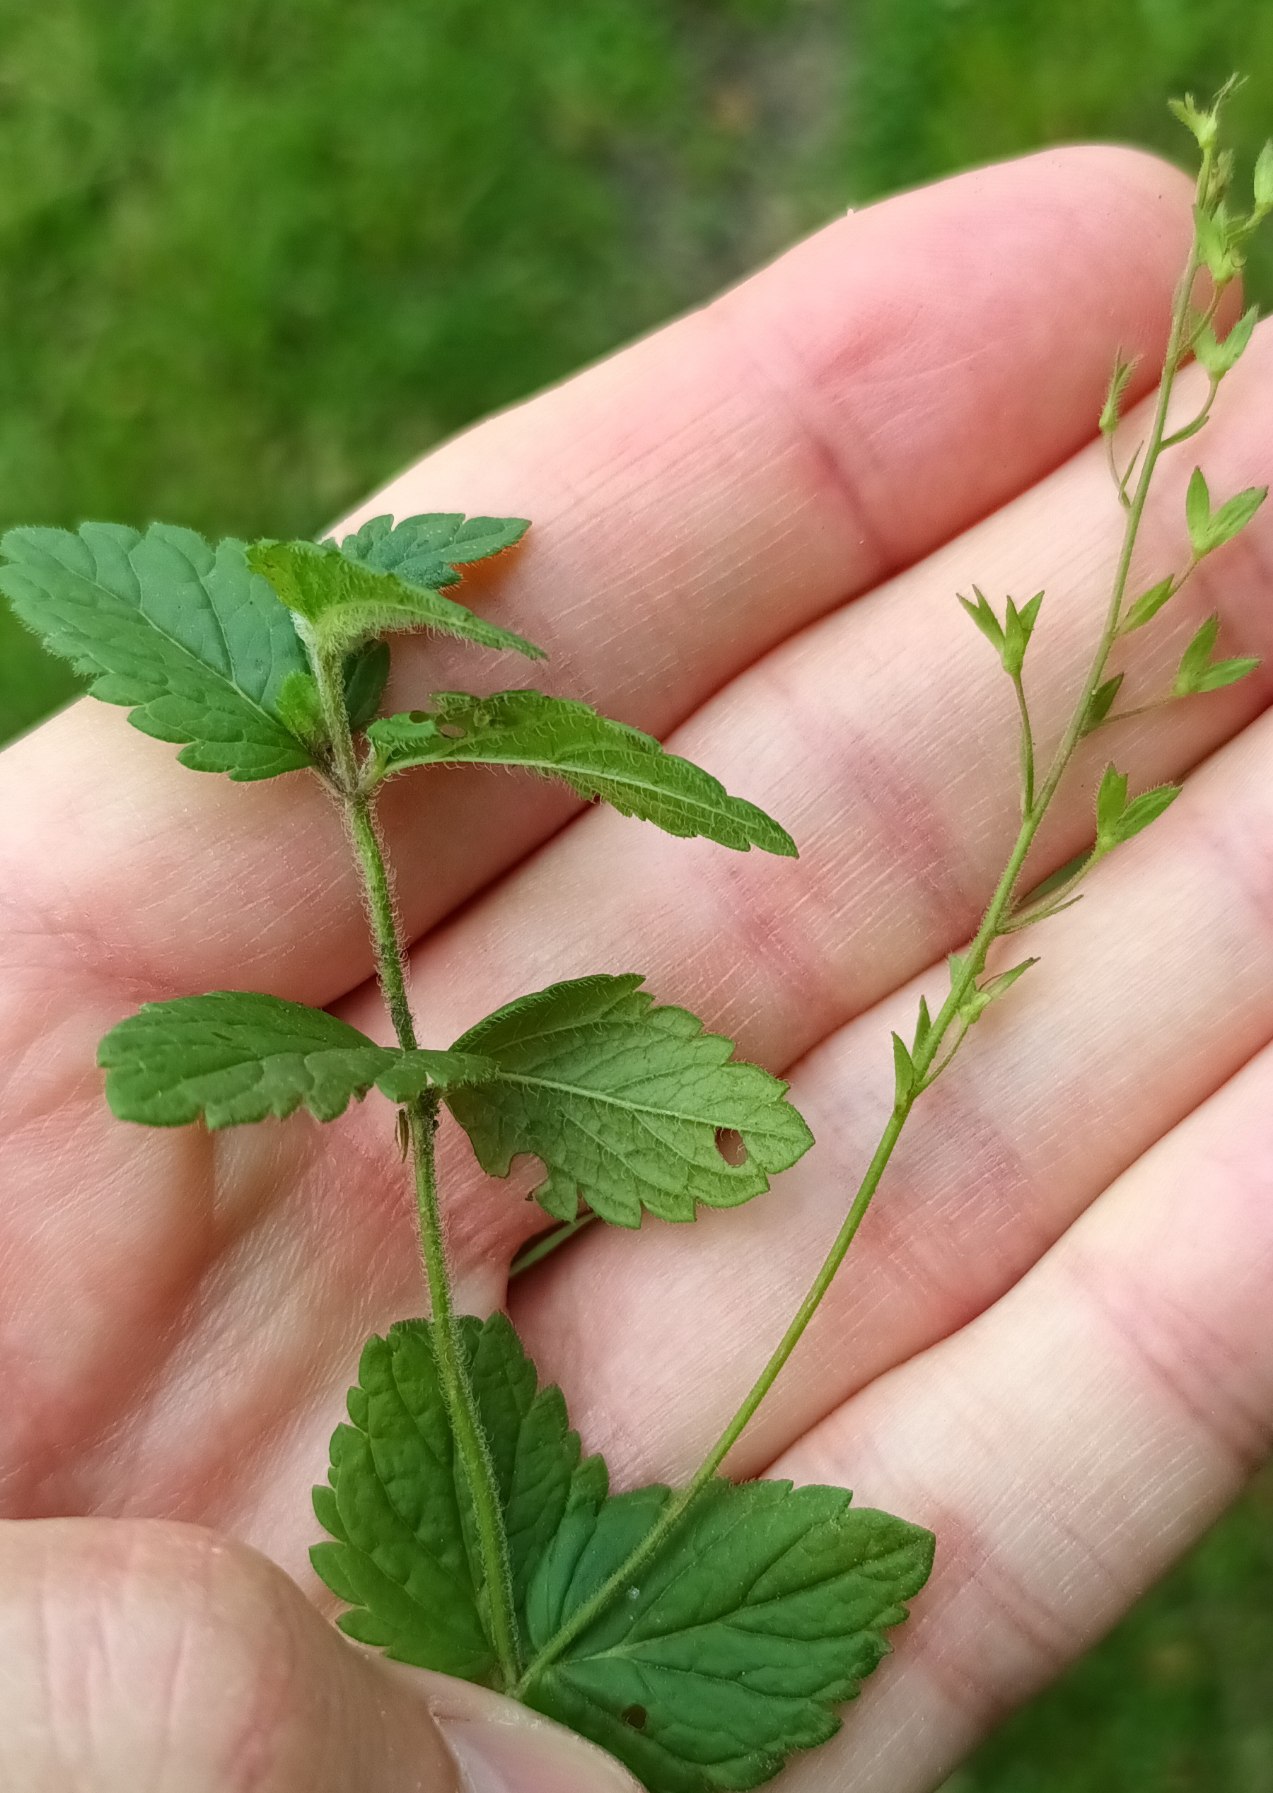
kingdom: Plantae
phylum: Tracheophyta
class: Magnoliopsida
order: Lamiales
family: Plantaginaceae
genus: Veronica
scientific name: Veronica chamaedrys
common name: Tveskægget ærenpris
